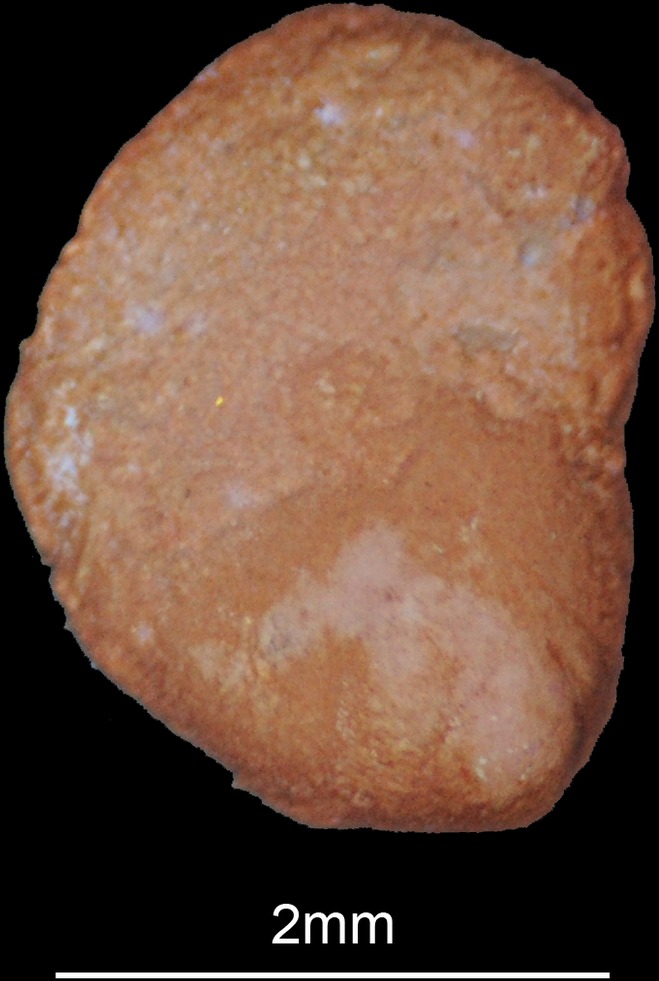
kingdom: Animalia
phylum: Chordata
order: Polypteriformes
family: Polypteridae
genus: Polypterus
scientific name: Polypterus senegalus
